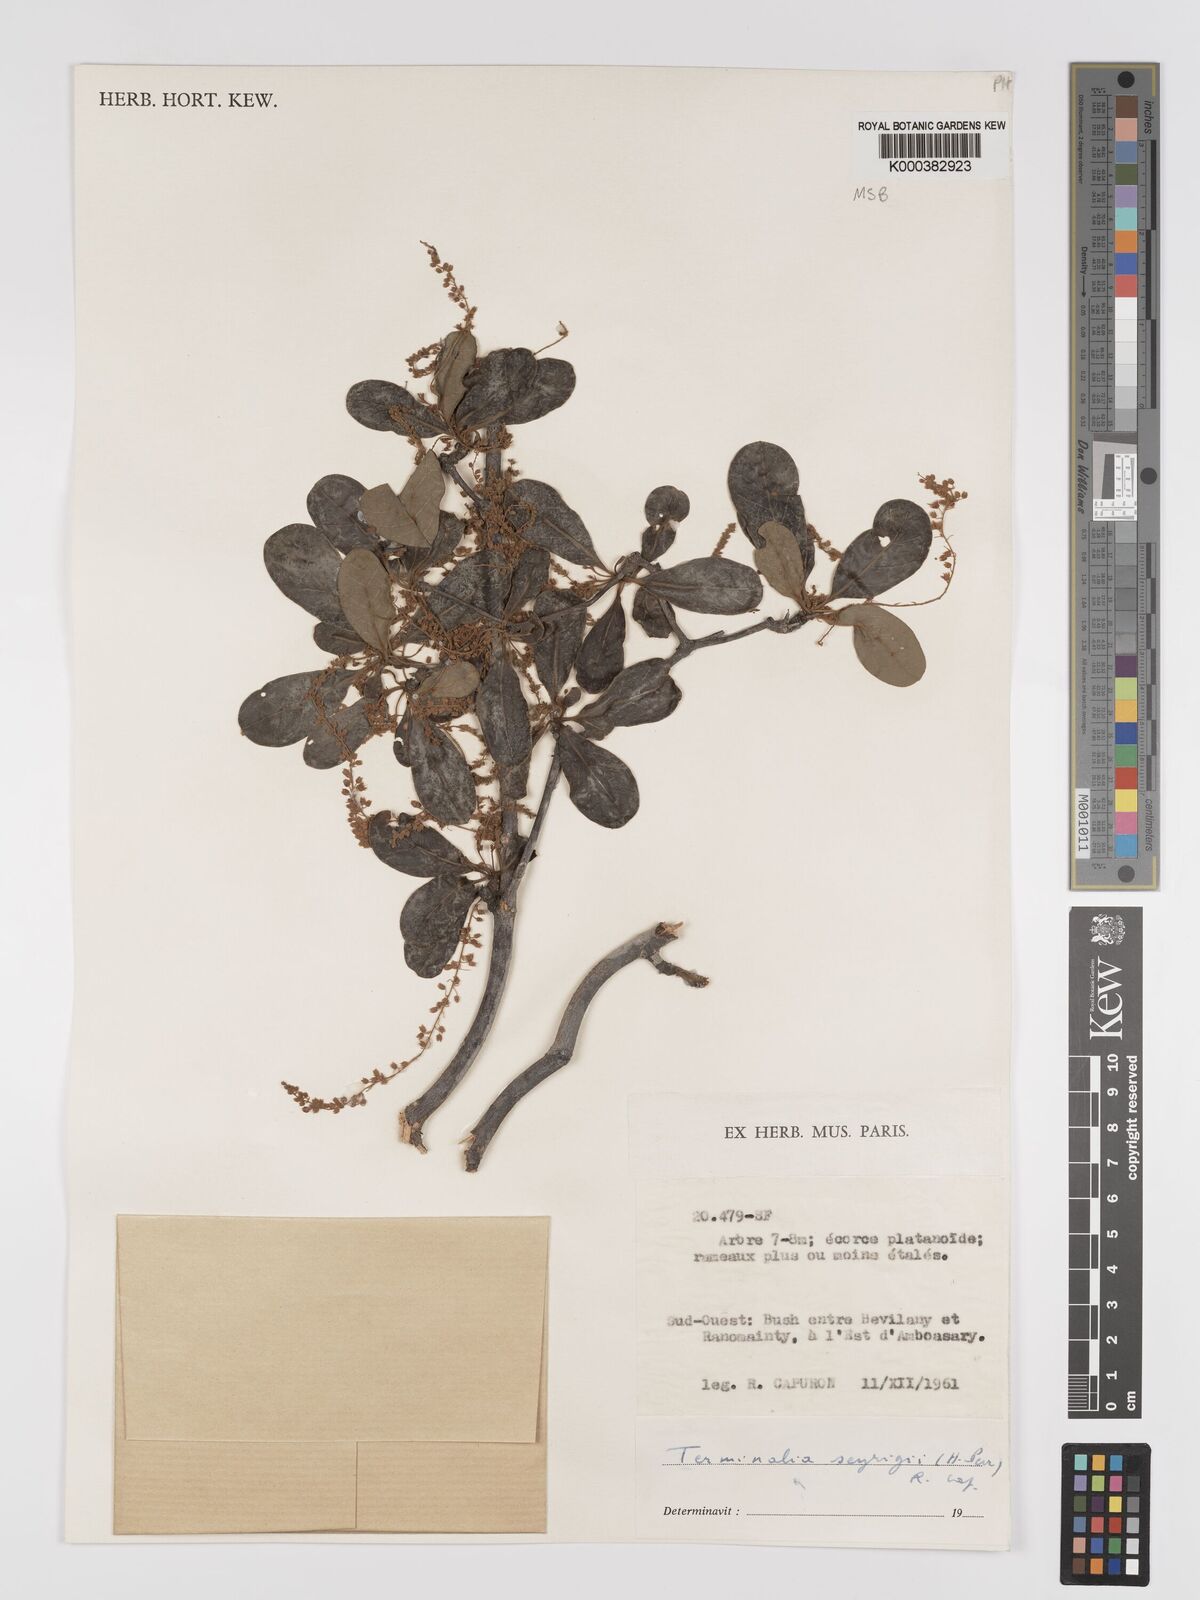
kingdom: Plantae
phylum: Tracheophyta
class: Magnoliopsida
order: Myrtales
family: Combretaceae
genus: Terminalia
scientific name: Terminalia seyrigii
